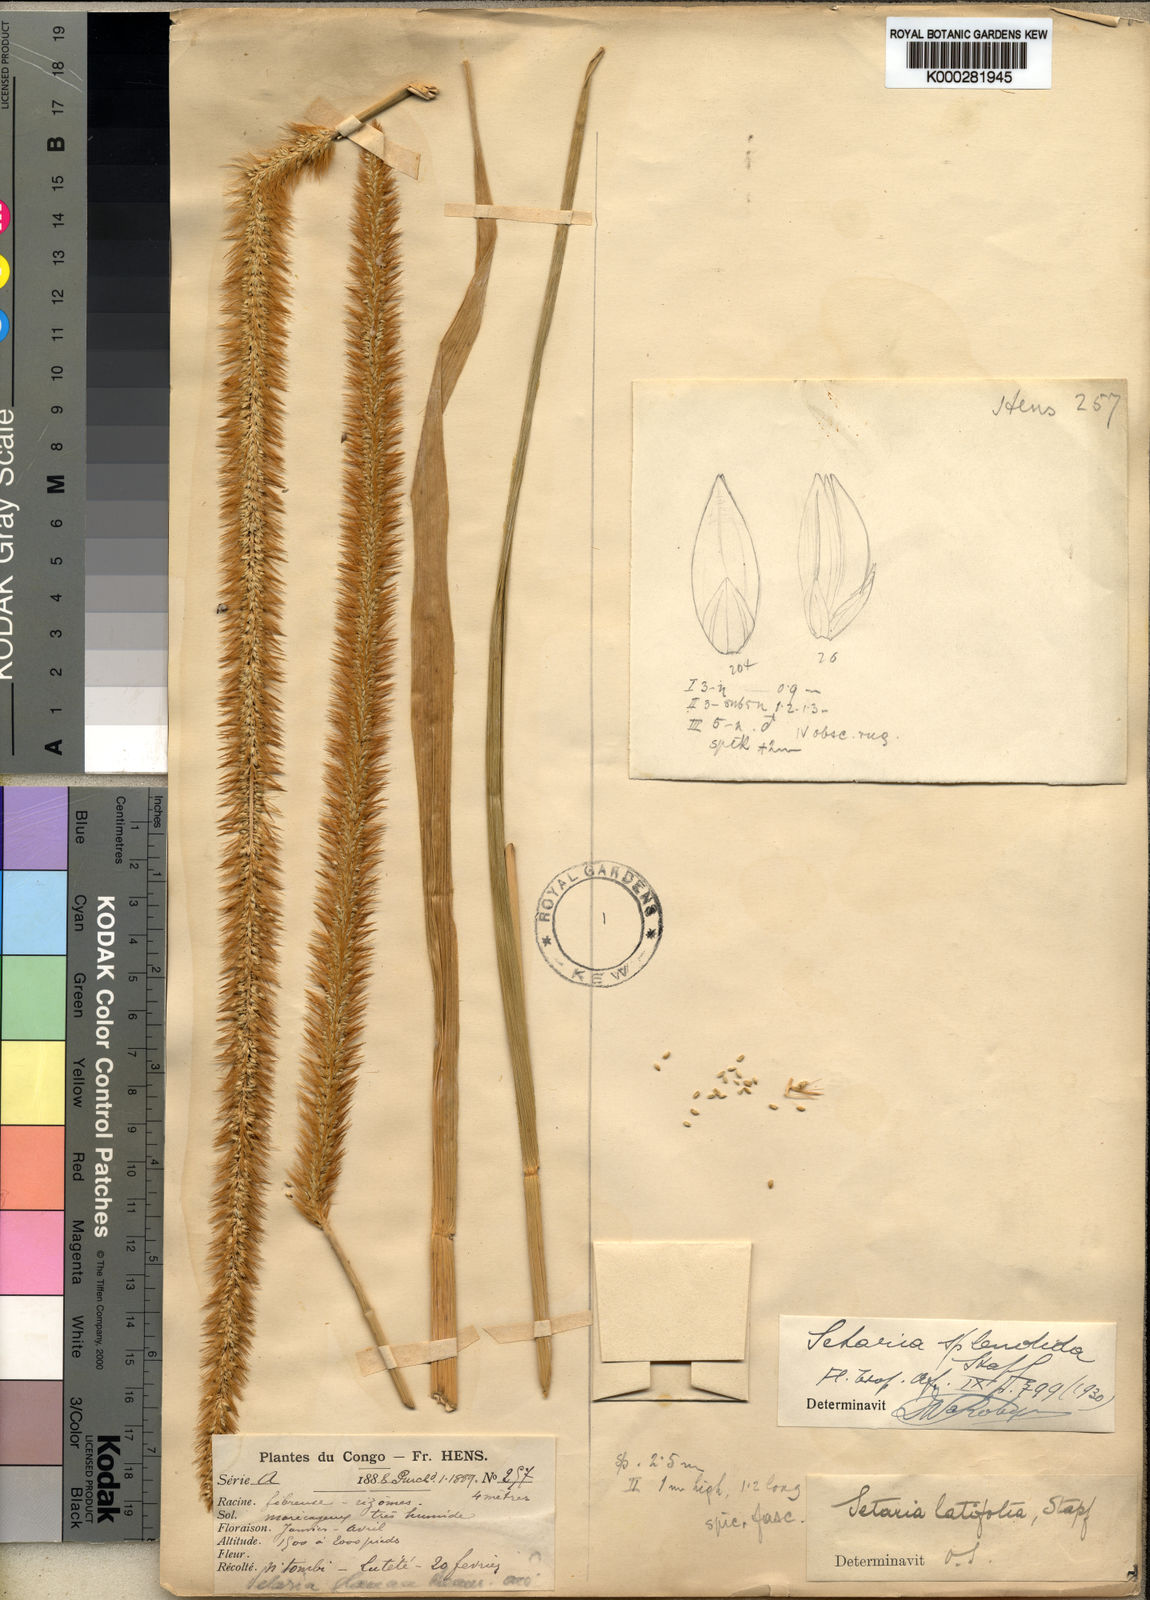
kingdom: Plantae
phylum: Tracheophyta
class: Liliopsida
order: Poales
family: Poaceae
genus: Setaria
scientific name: Setaria sphacelata
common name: African bristlegrass
